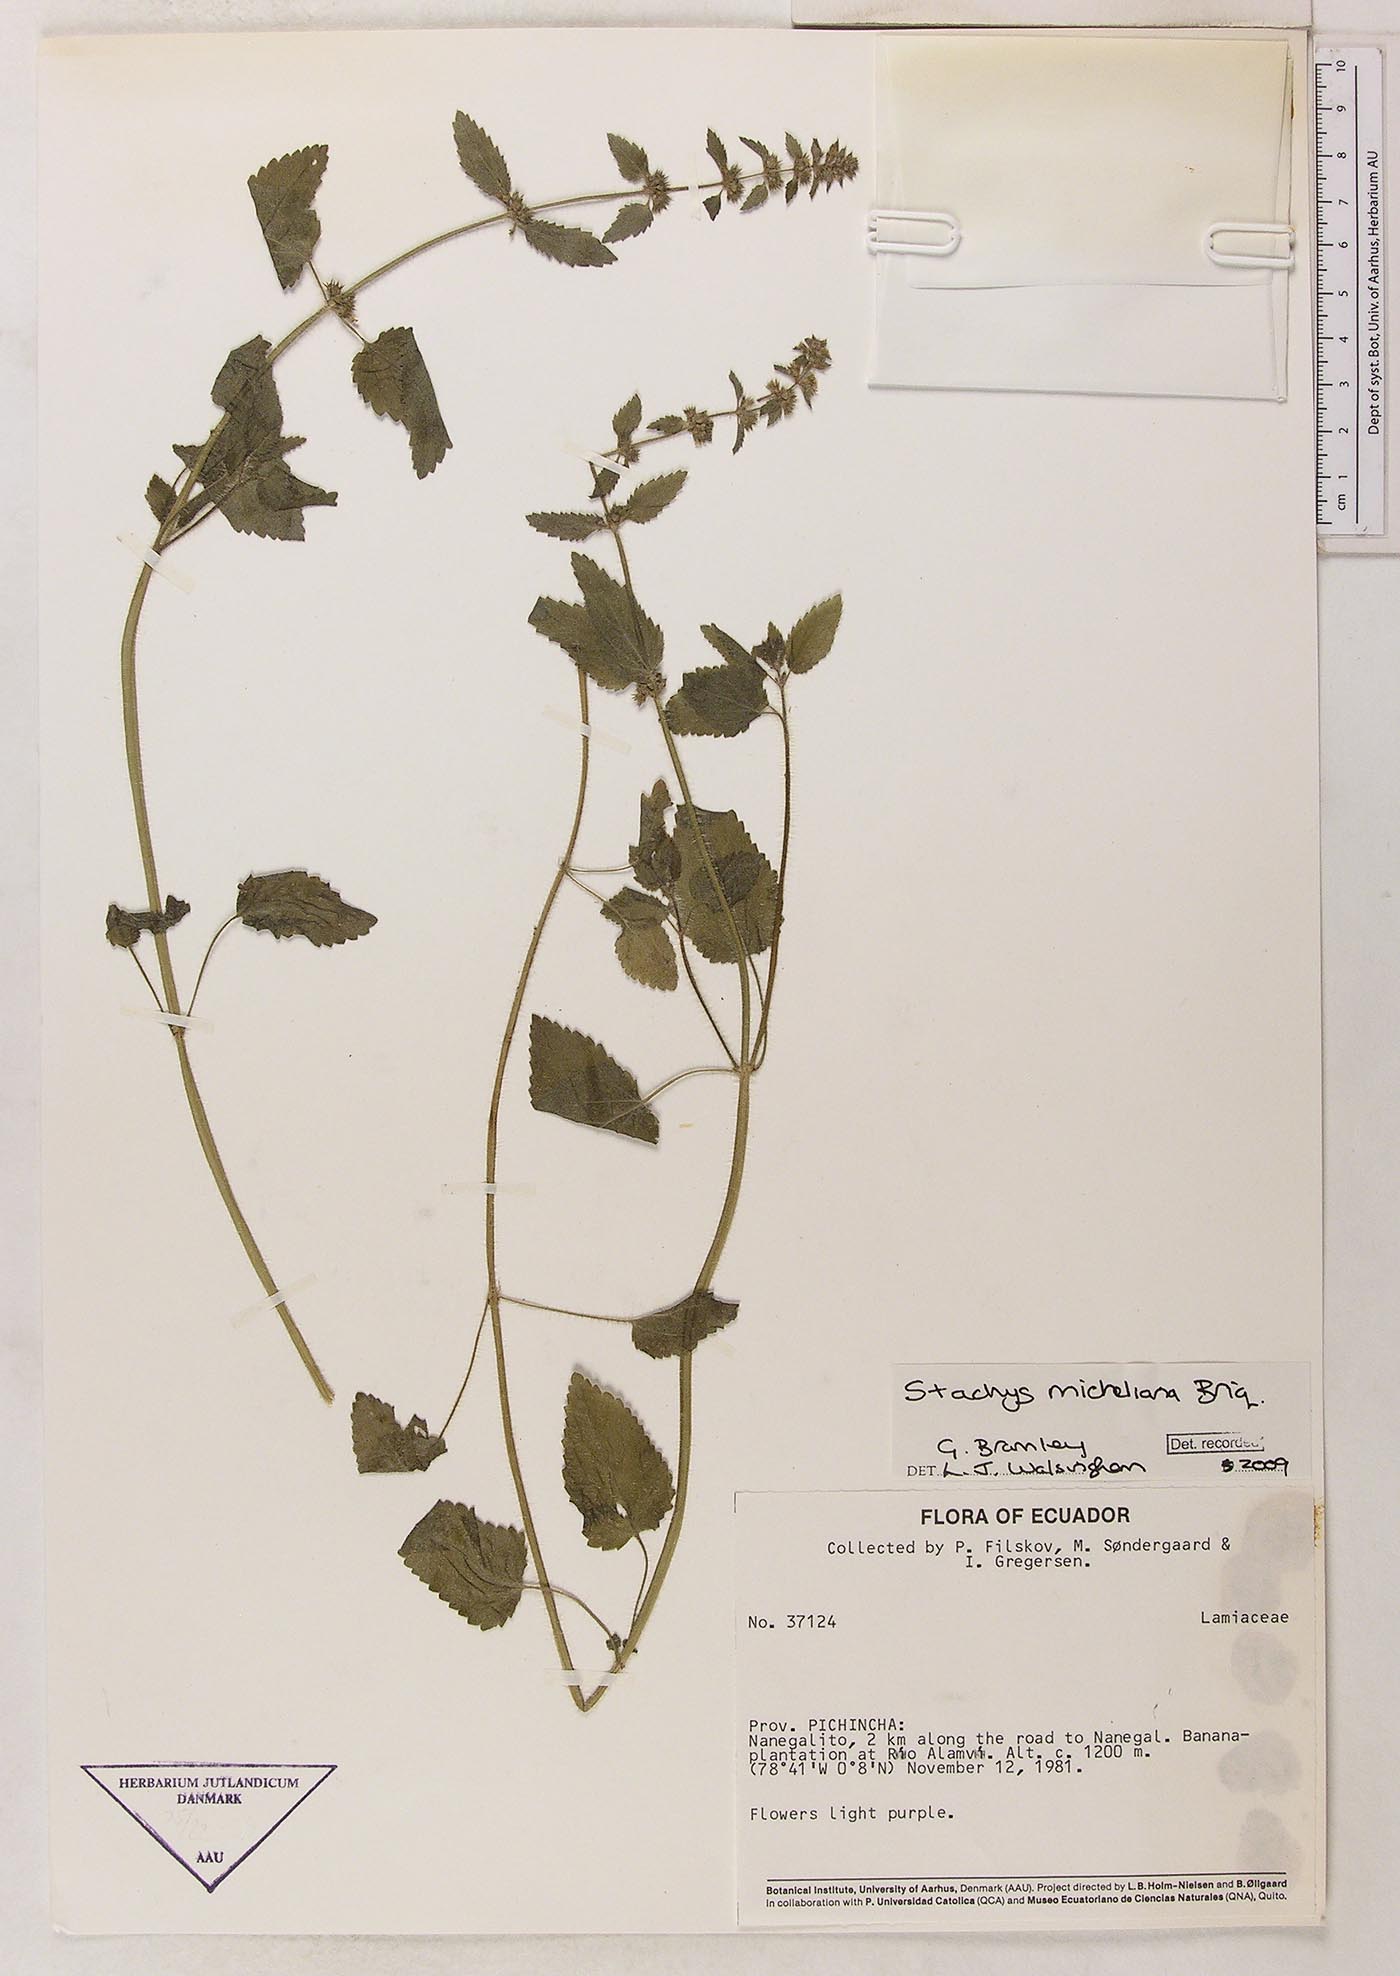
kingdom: Plantae
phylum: Tracheophyta
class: Magnoliopsida
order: Lamiales
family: Lamiaceae
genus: Stachys
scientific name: Stachys gilliesii
